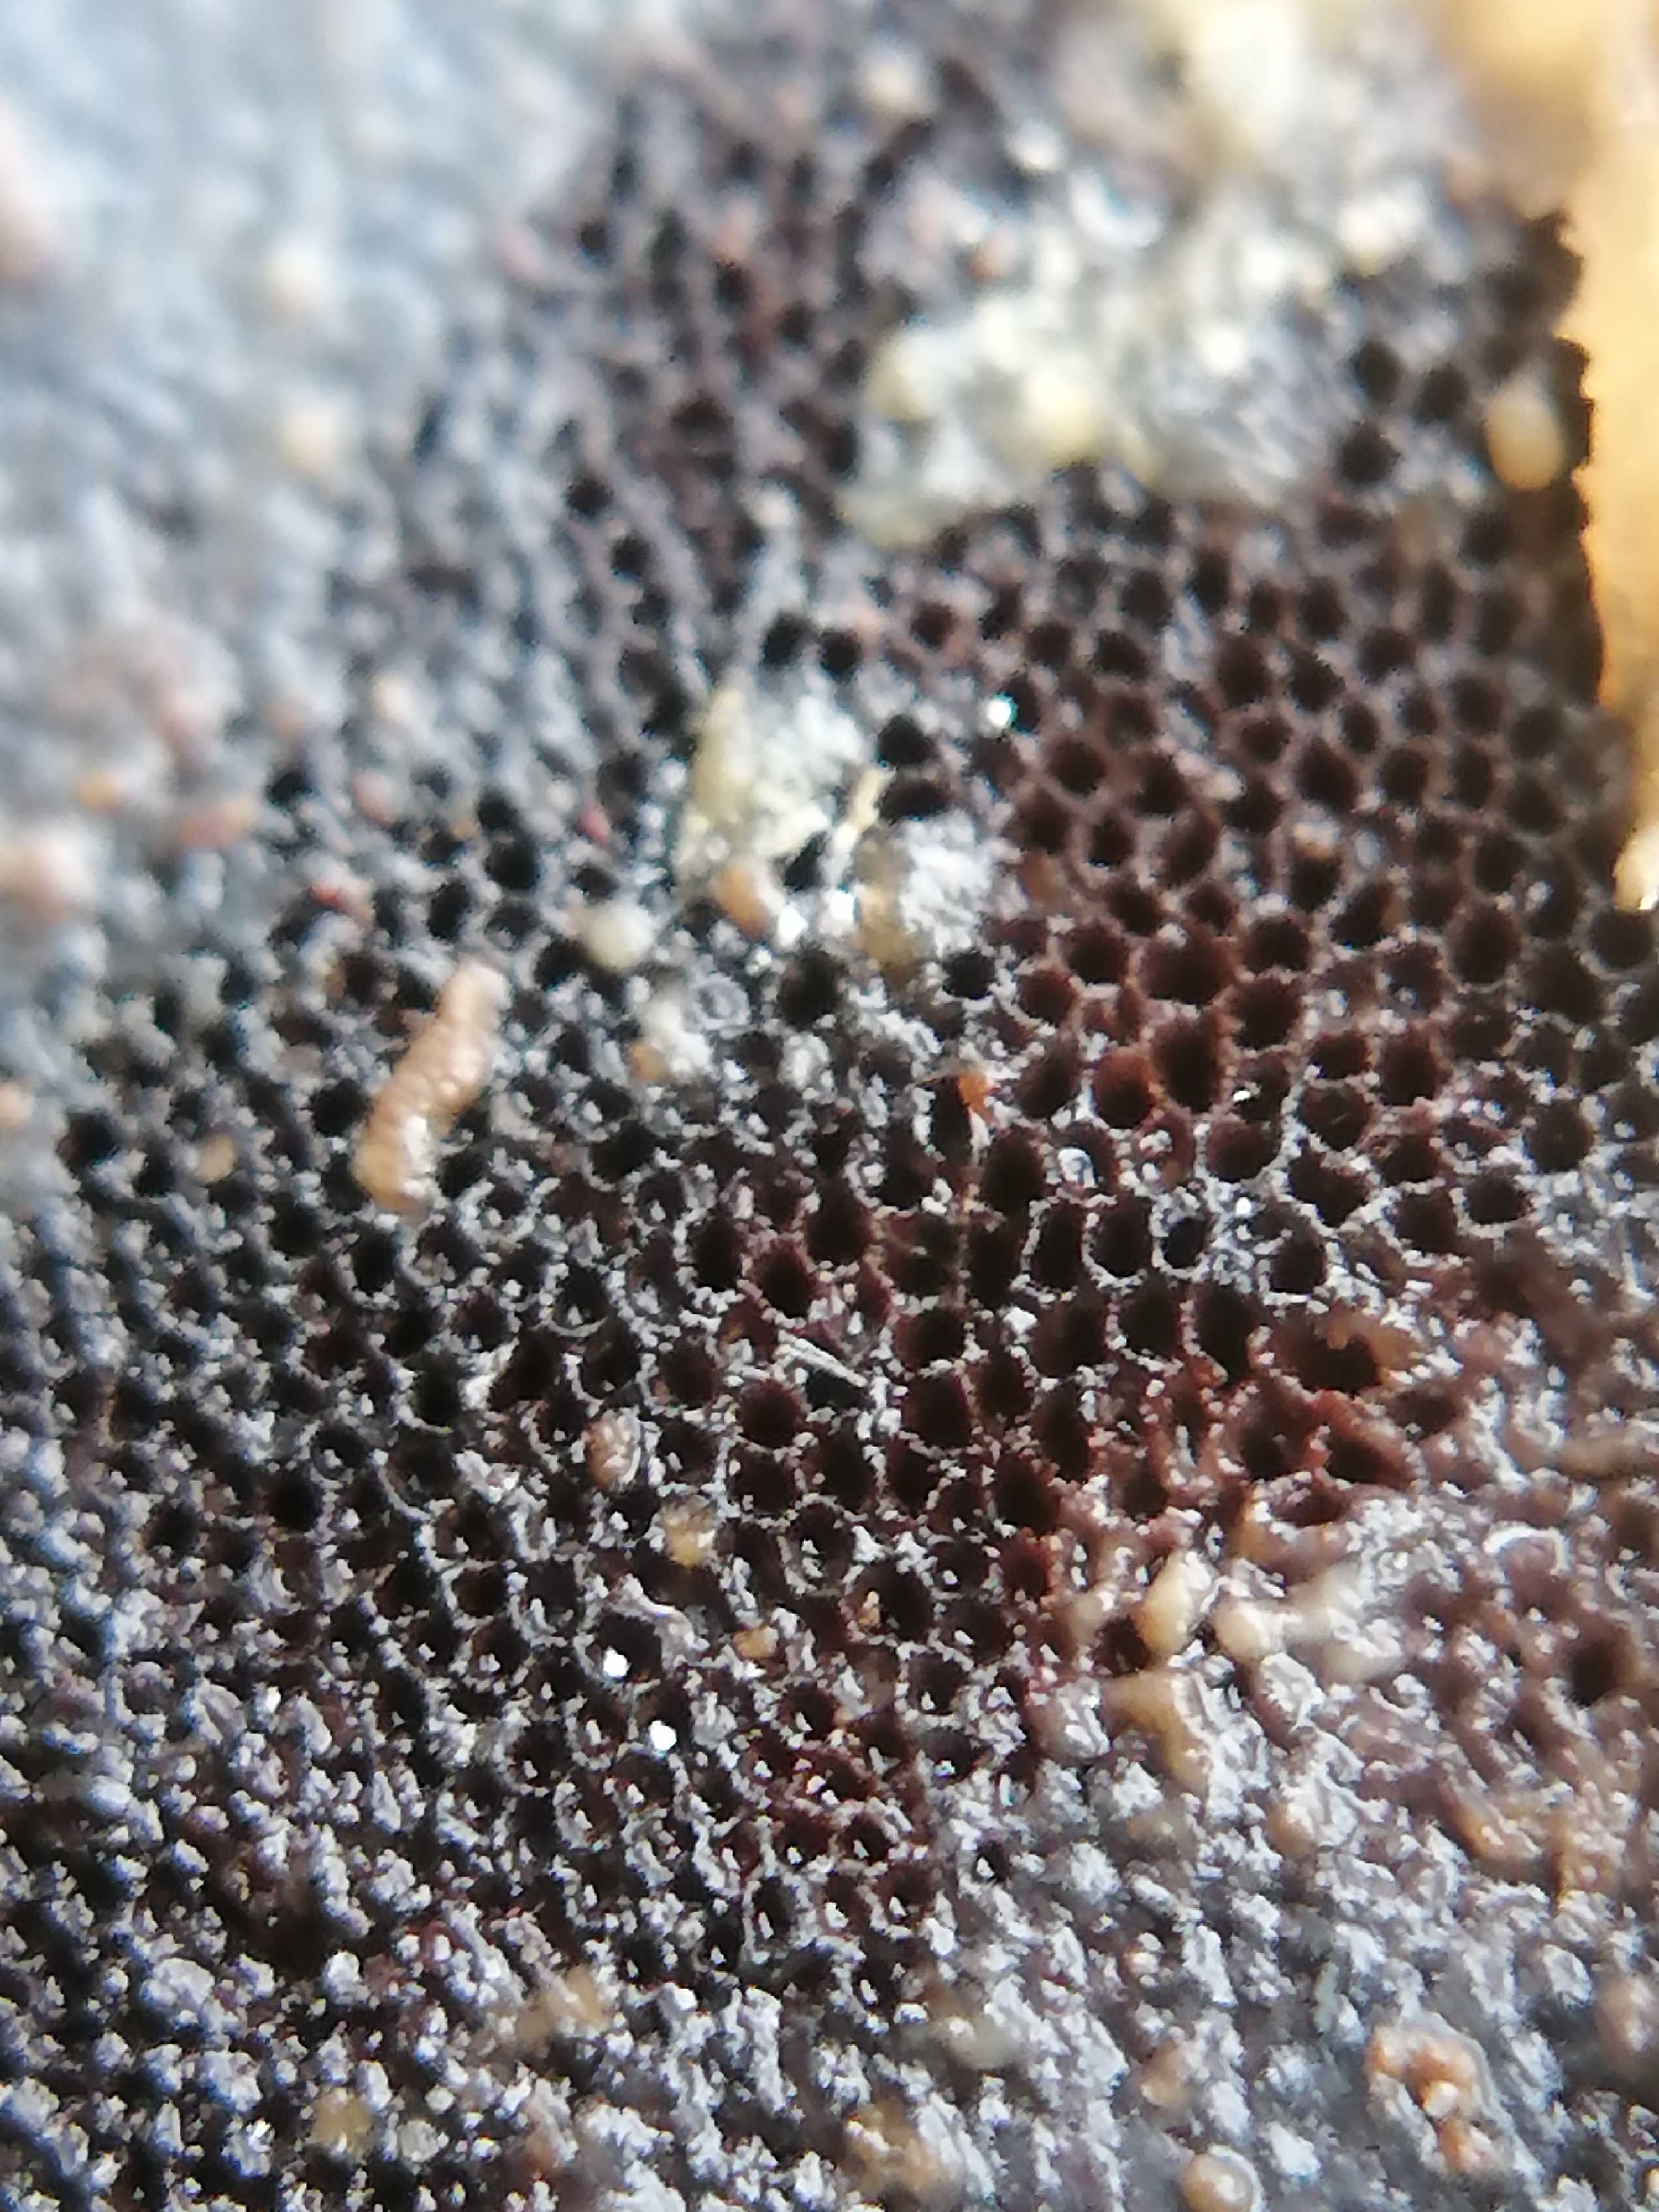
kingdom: Fungi
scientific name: Fungi
